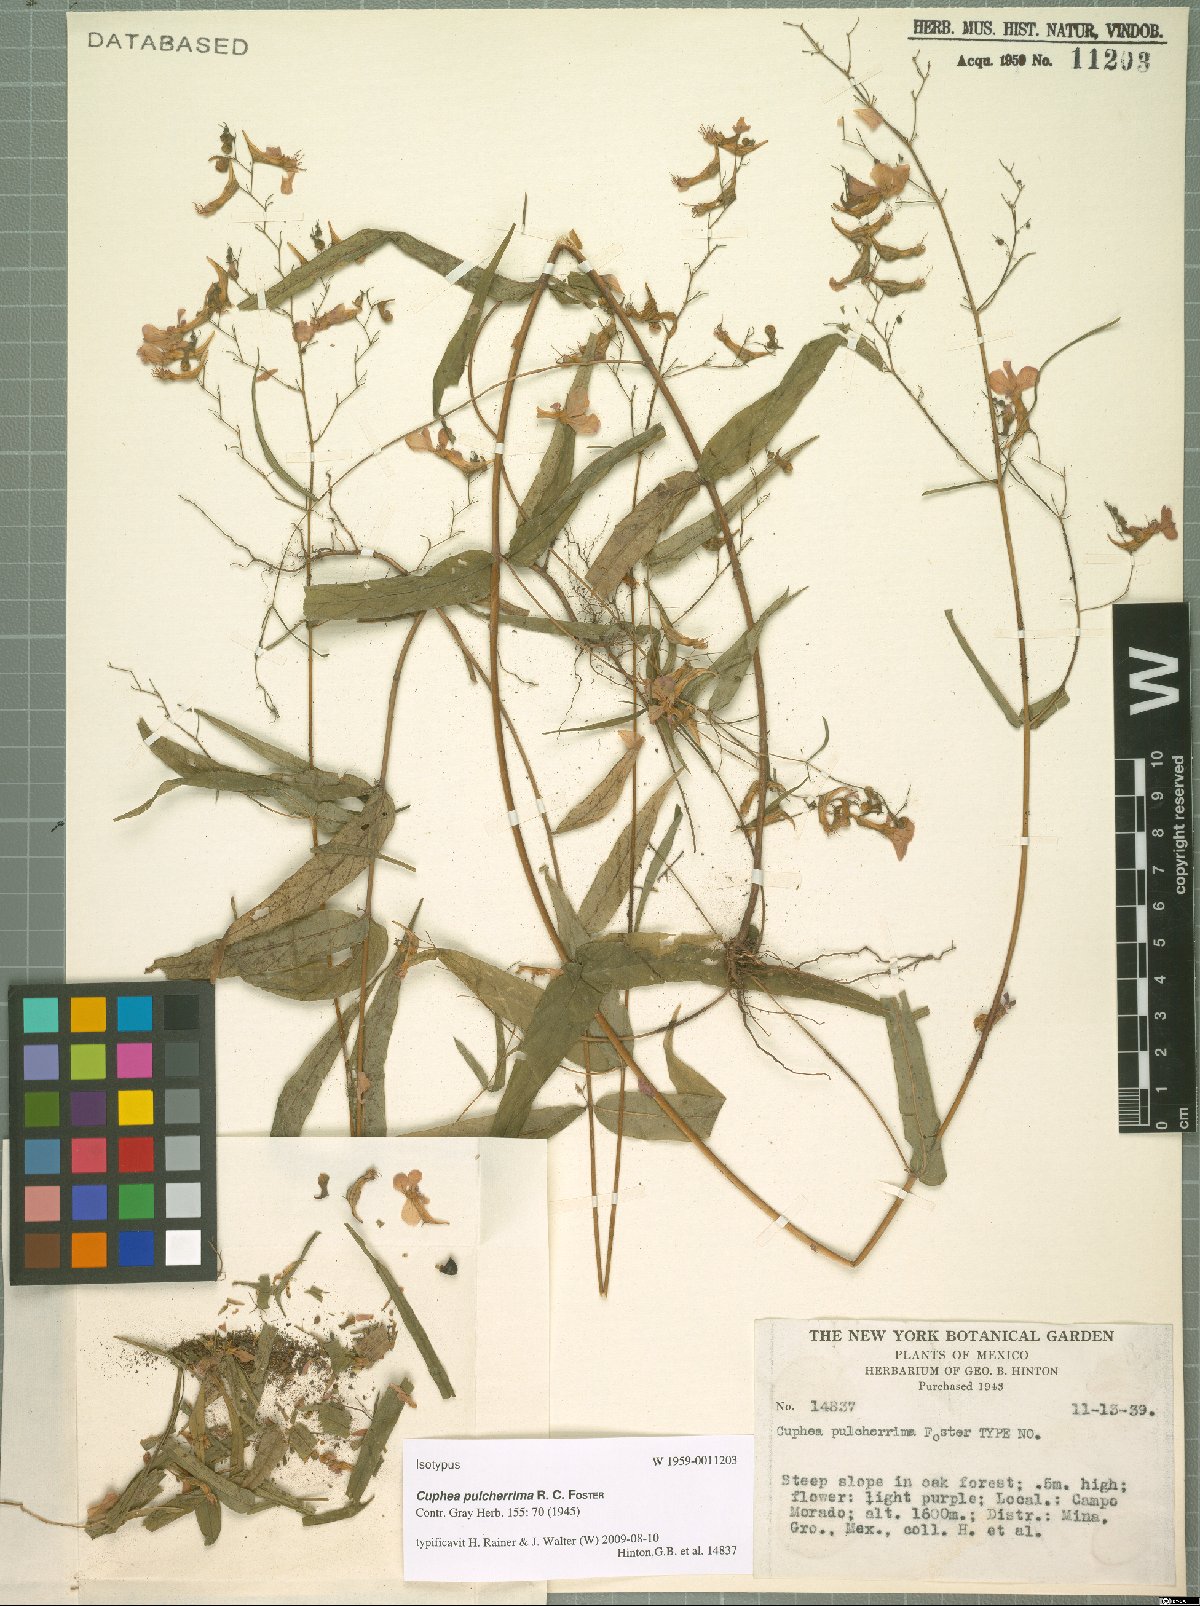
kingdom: Plantae
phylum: Tracheophyta
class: Magnoliopsida
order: Myrtales
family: Lythraceae
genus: Cuphea
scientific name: Cuphea avigera
